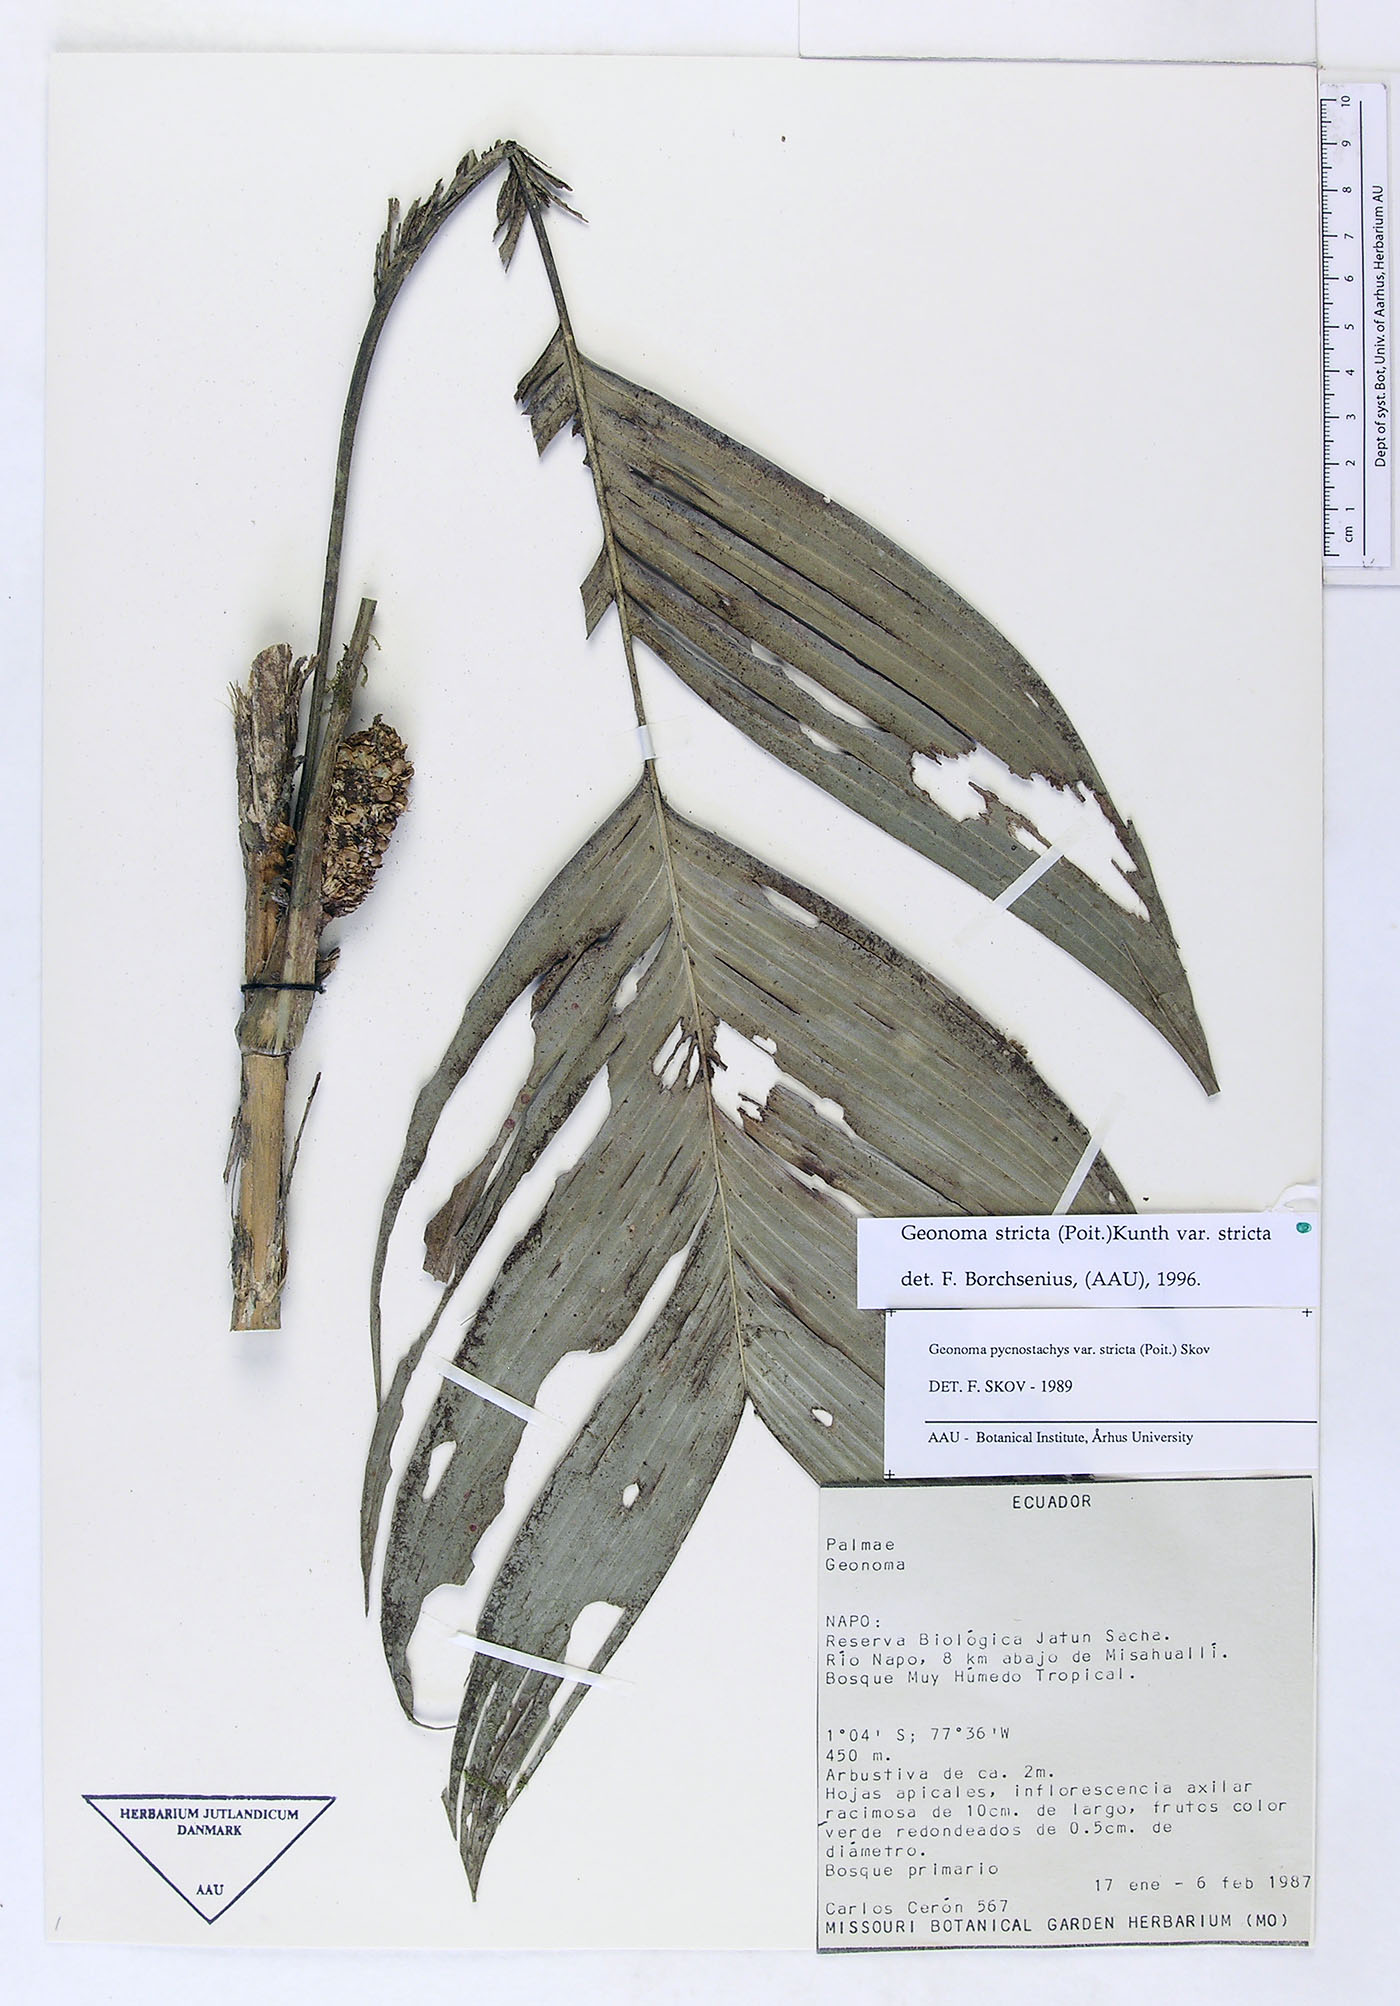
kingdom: Plantae
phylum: Tracheophyta
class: Liliopsida
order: Arecales
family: Arecaceae
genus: Geonoma
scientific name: Geonoma stricta
